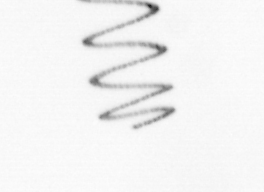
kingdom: Chromista
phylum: Ochrophyta
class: Bacillariophyceae
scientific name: Bacillariophyceae
